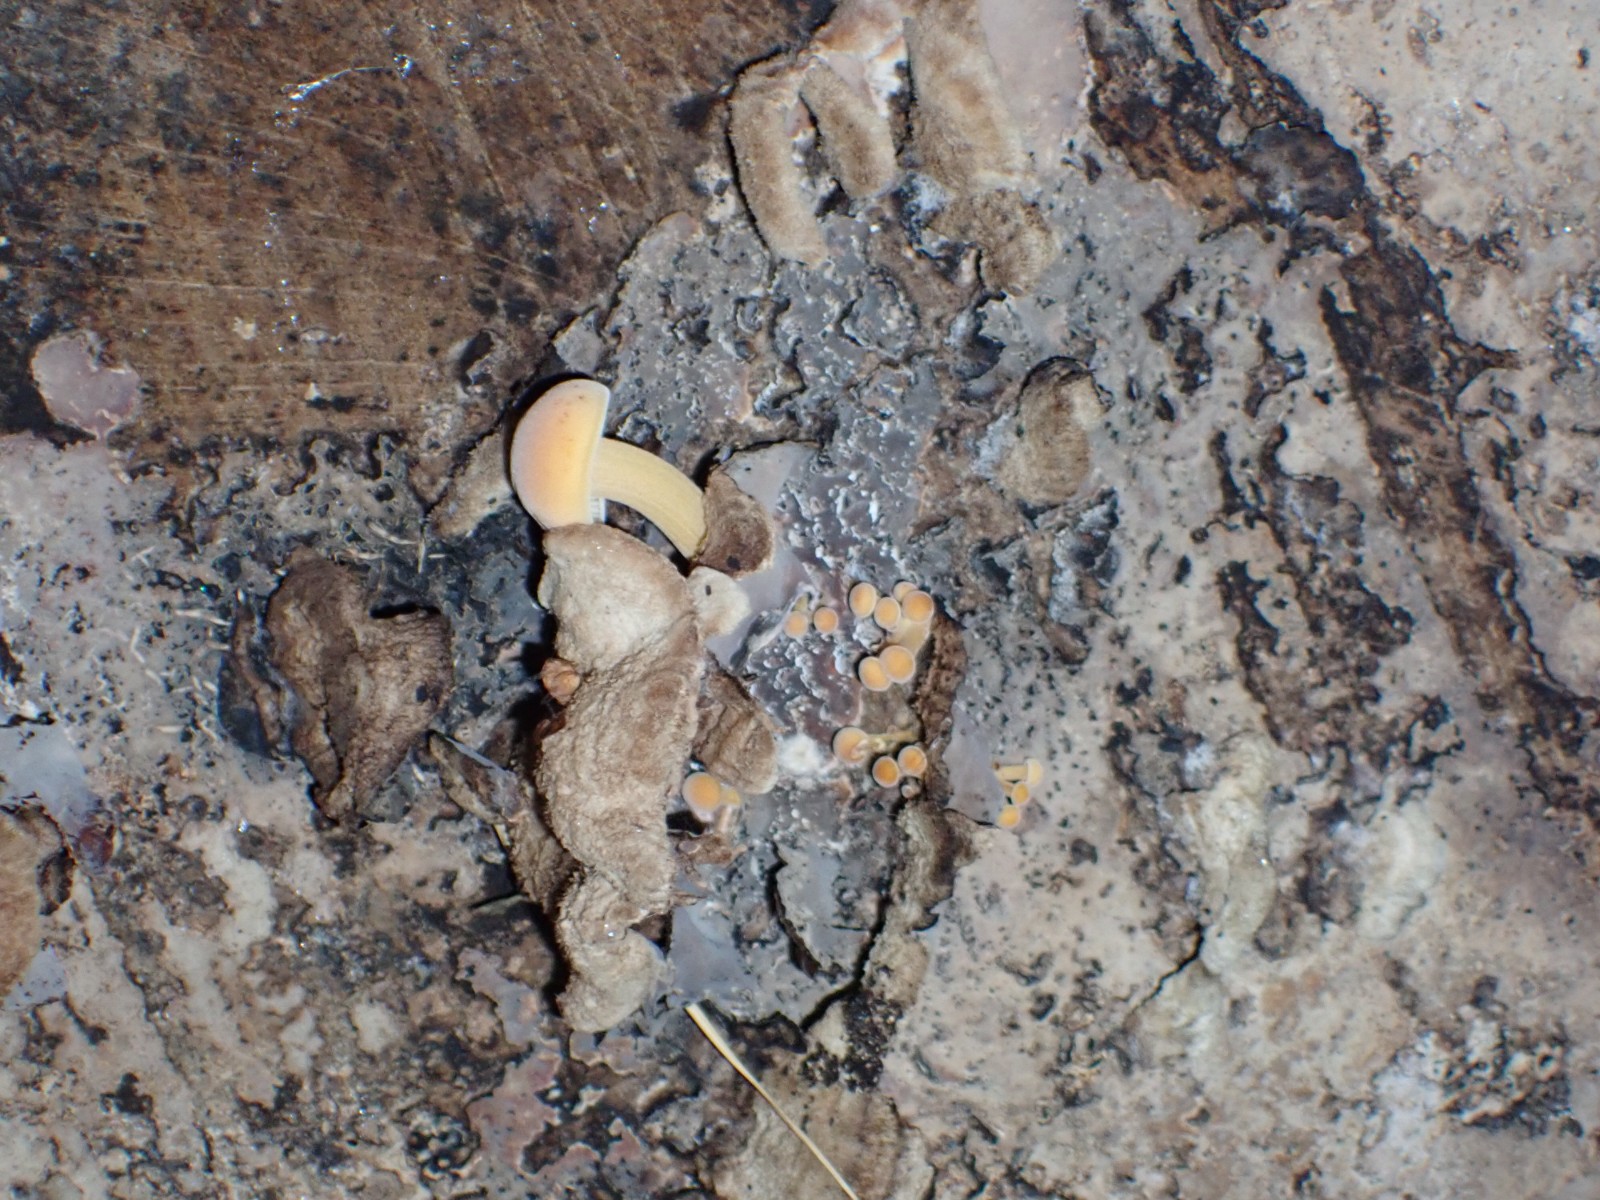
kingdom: Fungi
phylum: Basidiomycota
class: Agaricomycetes
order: Agaricales
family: Physalacriaceae
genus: Flammulina
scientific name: Flammulina velutipes
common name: gul fløjlsfod
